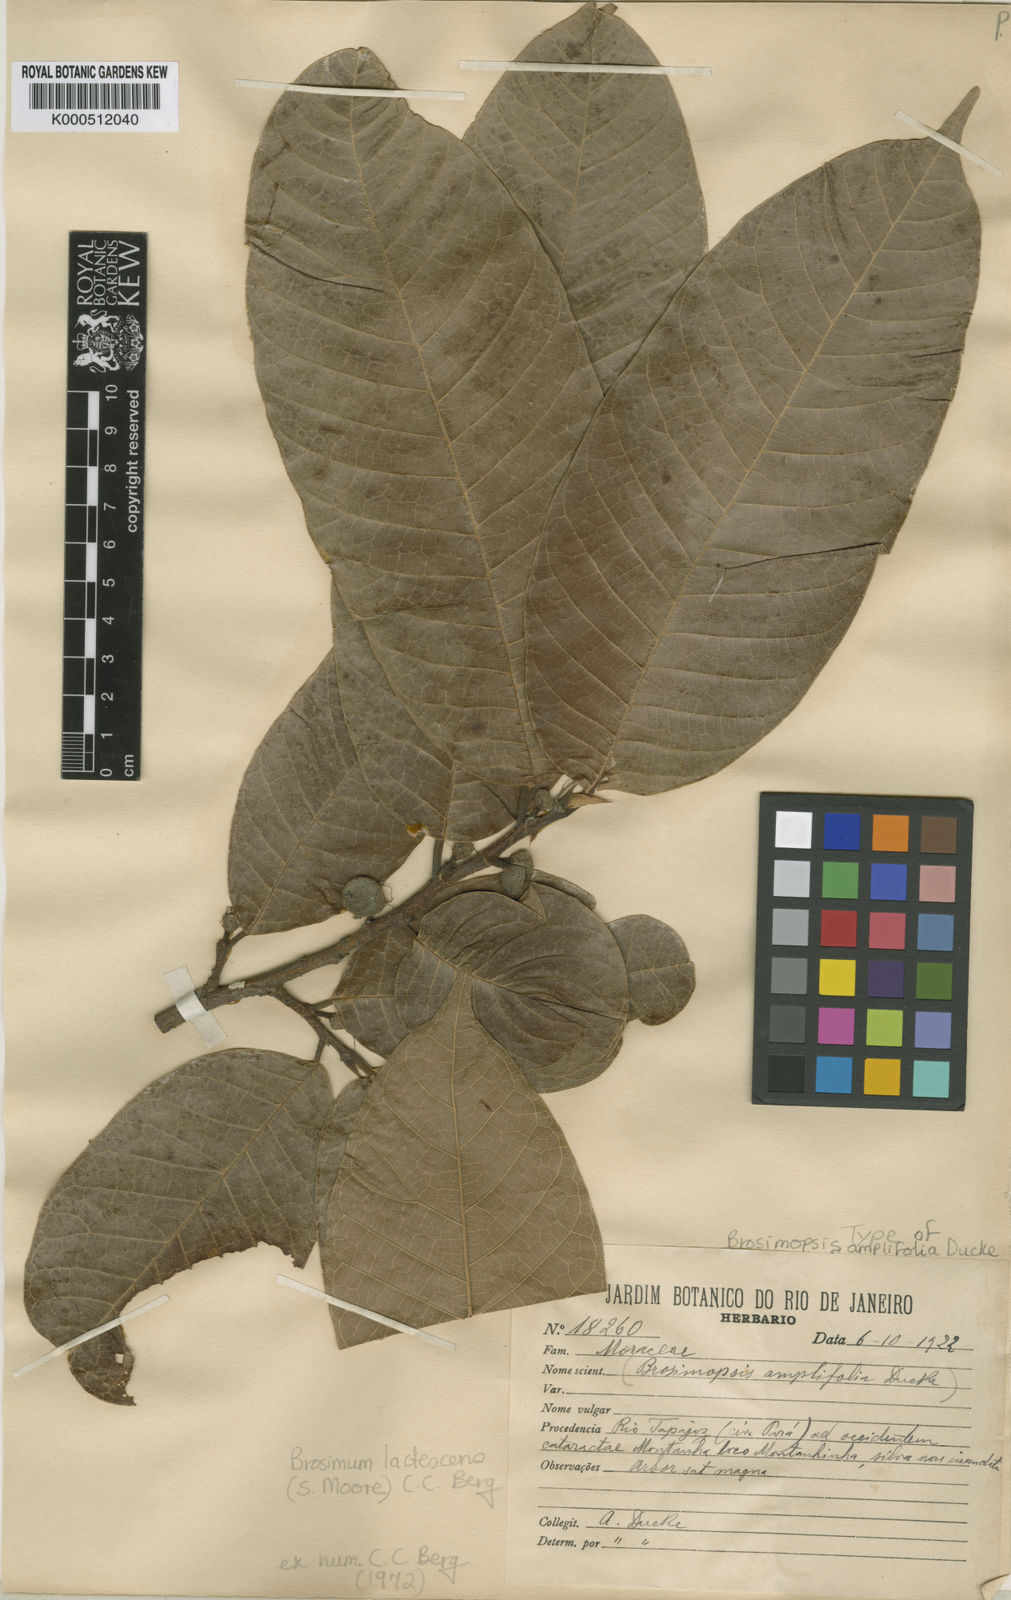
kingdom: Plantae
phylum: Tracheophyta
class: Magnoliopsida
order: Rosales
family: Moraceae
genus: Brosimum
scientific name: Brosimum lactescens
